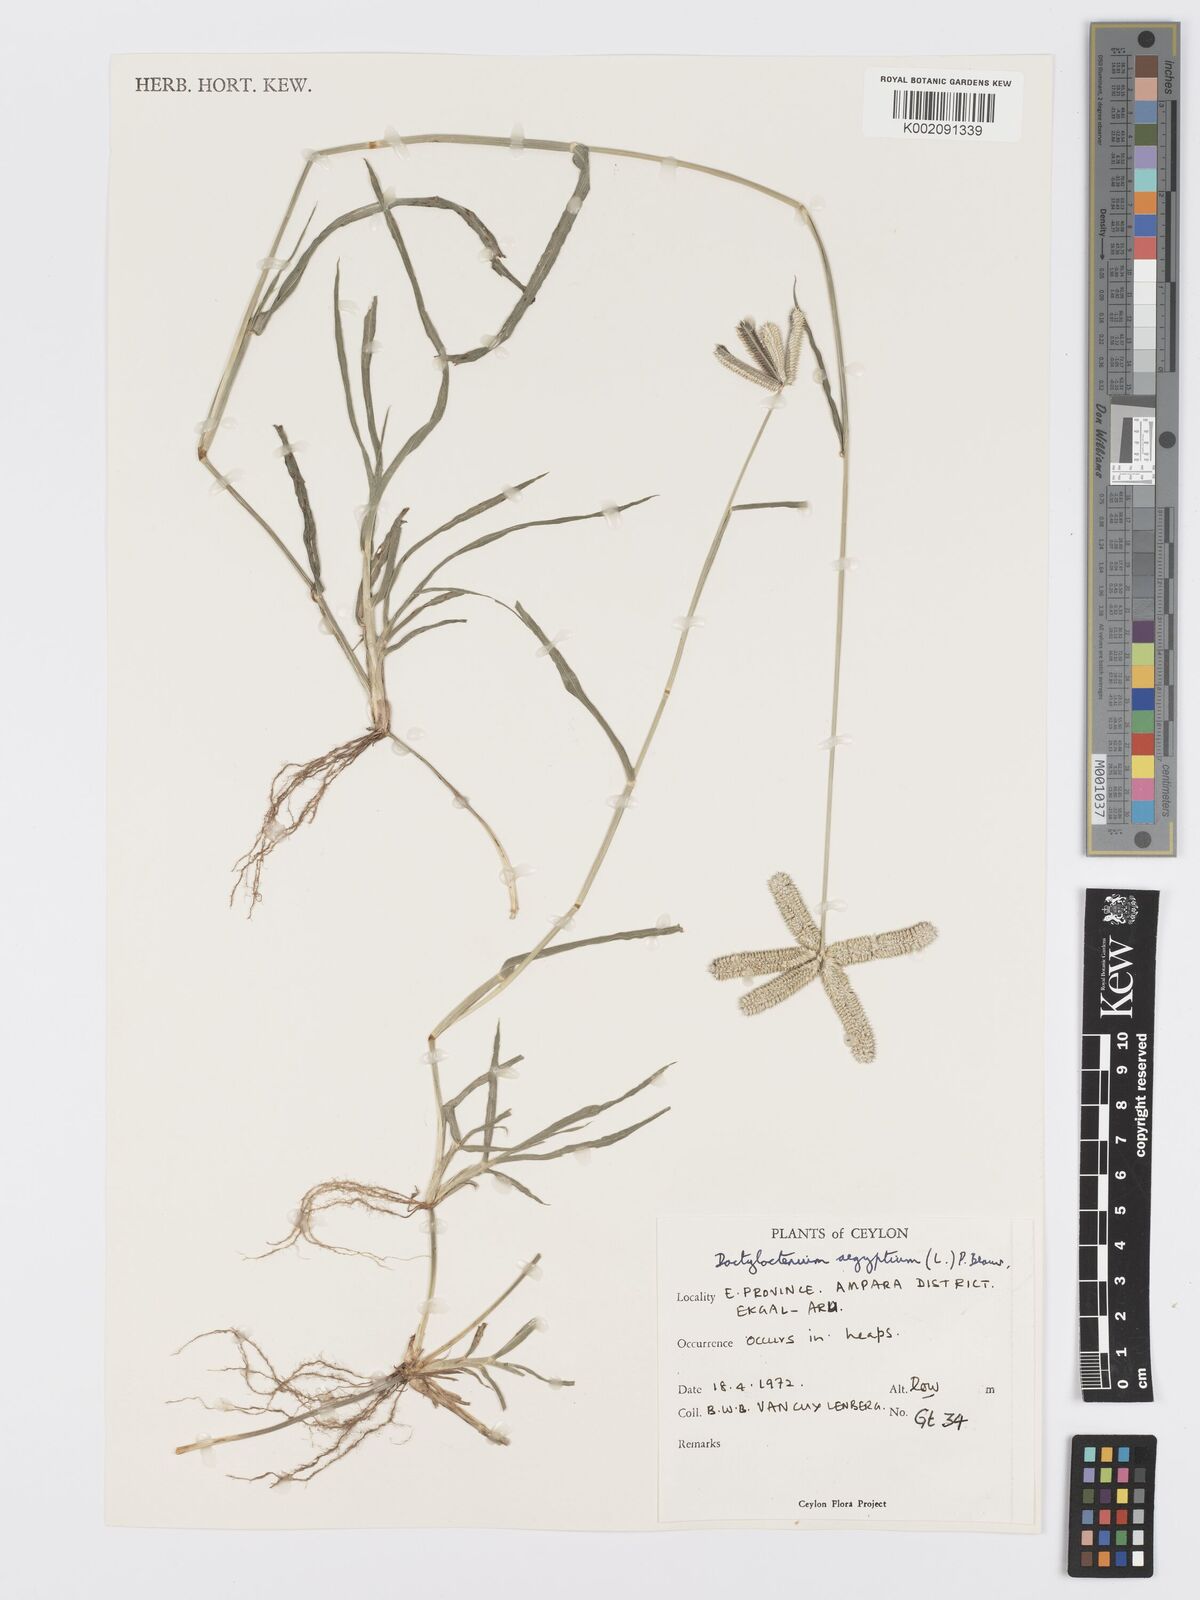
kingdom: Plantae
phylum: Tracheophyta
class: Liliopsida
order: Poales
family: Poaceae
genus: Dactyloctenium
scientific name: Dactyloctenium aegyptium
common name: Egyptian grass
